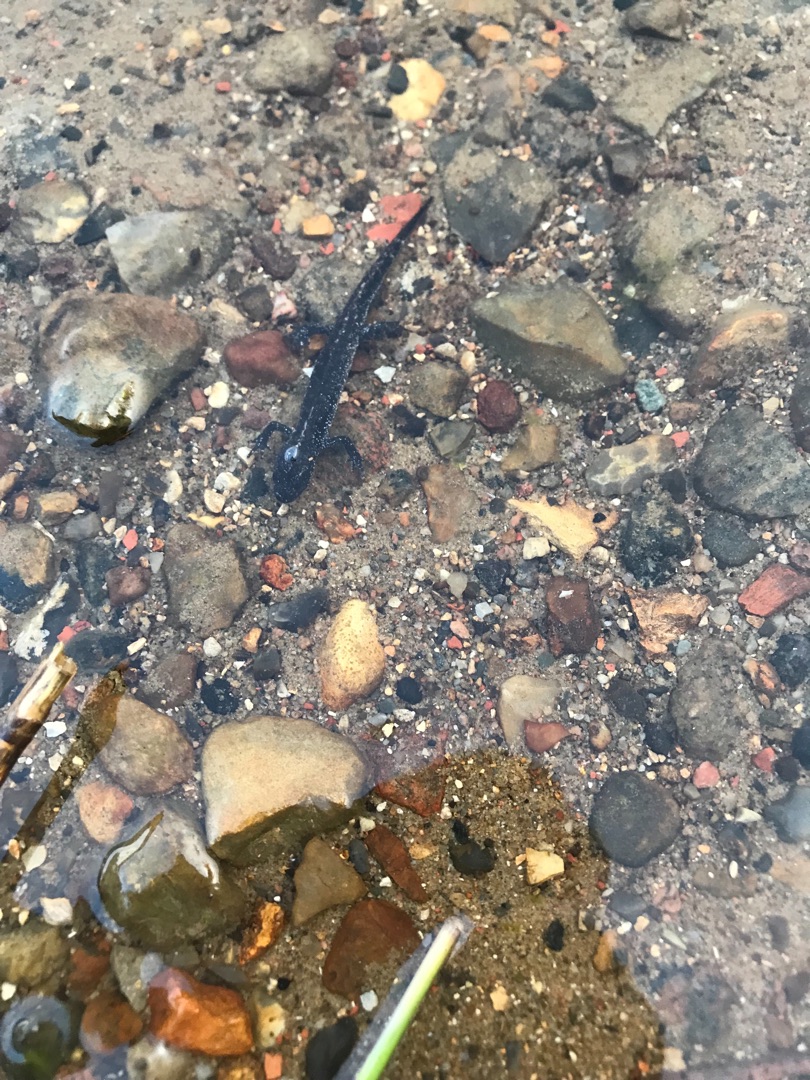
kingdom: Animalia
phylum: Chordata
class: Amphibia
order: Caudata
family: Salamandridae
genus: Triturus
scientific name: Triturus cristatus
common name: Stor vandsalamander
